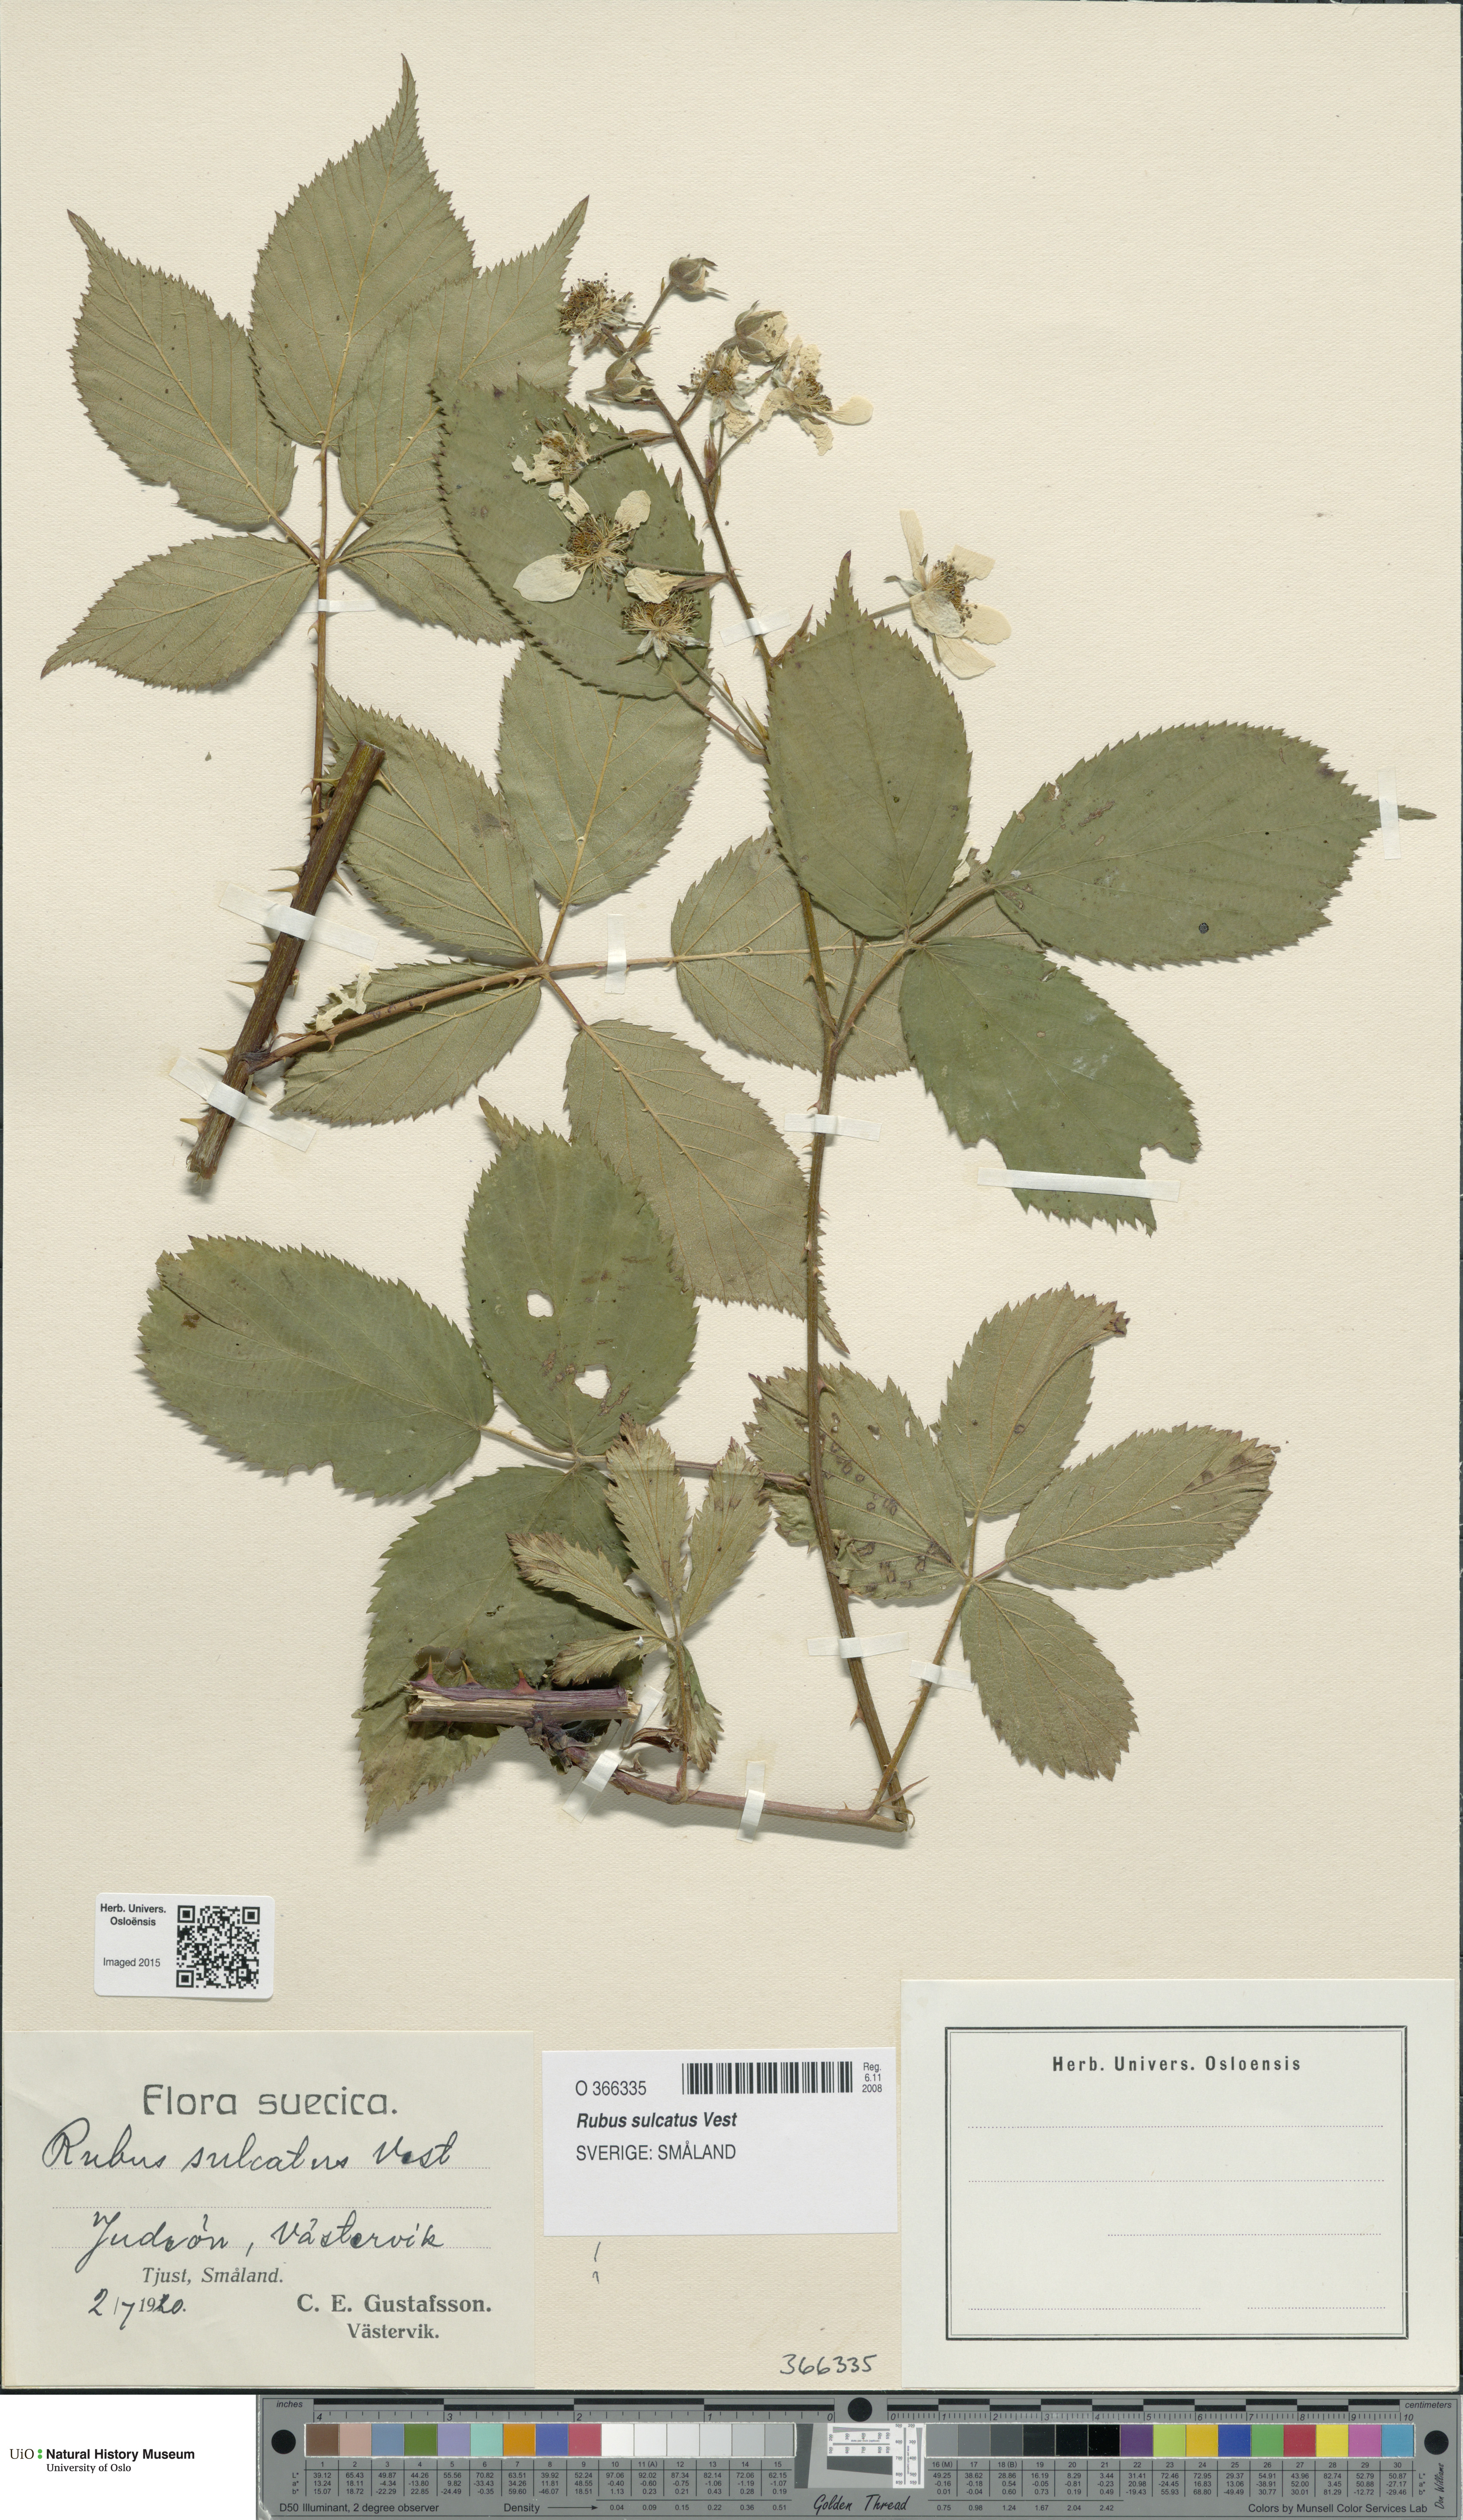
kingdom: Plantae
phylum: Tracheophyta
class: Magnoliopsida
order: Rosales
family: Rosaceae
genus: Rubus
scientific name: Rubus sulcatus
